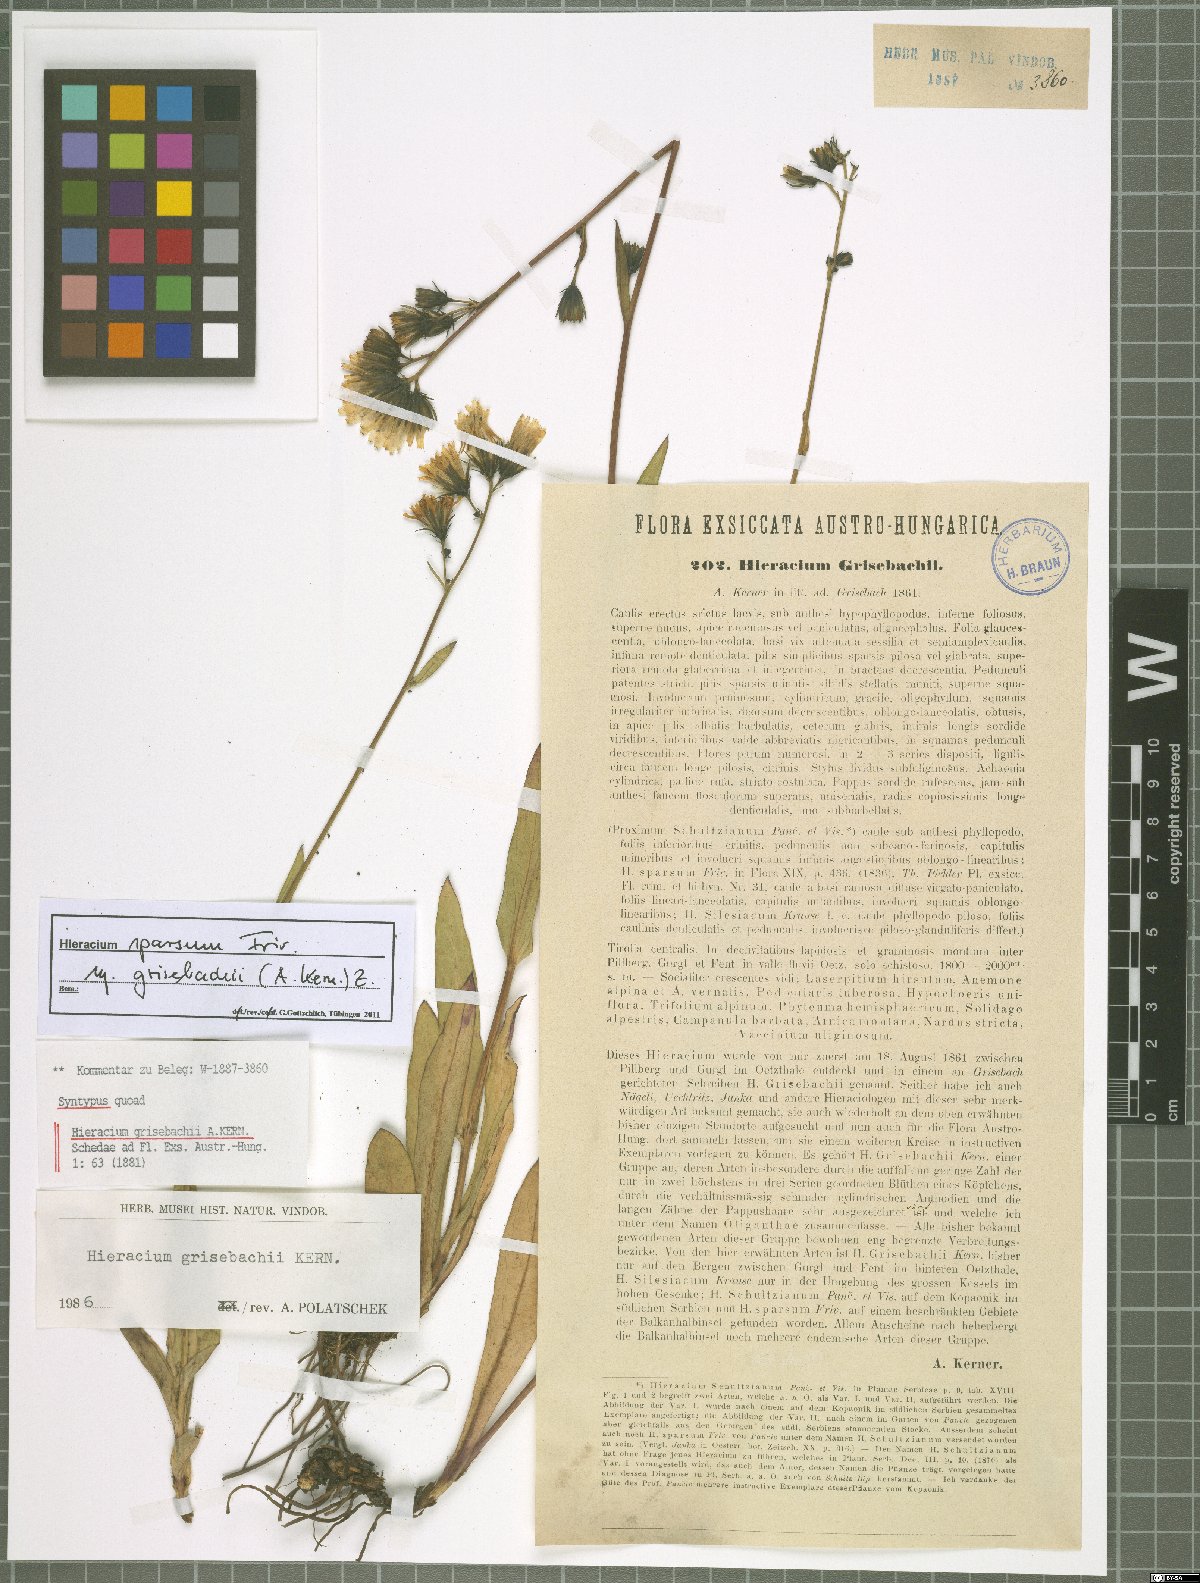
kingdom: Plantae
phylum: Tracheophyta
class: Magnoliopsida
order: Asterales
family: Asteraceae
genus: Hieracium
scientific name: Hieracium sparsum
